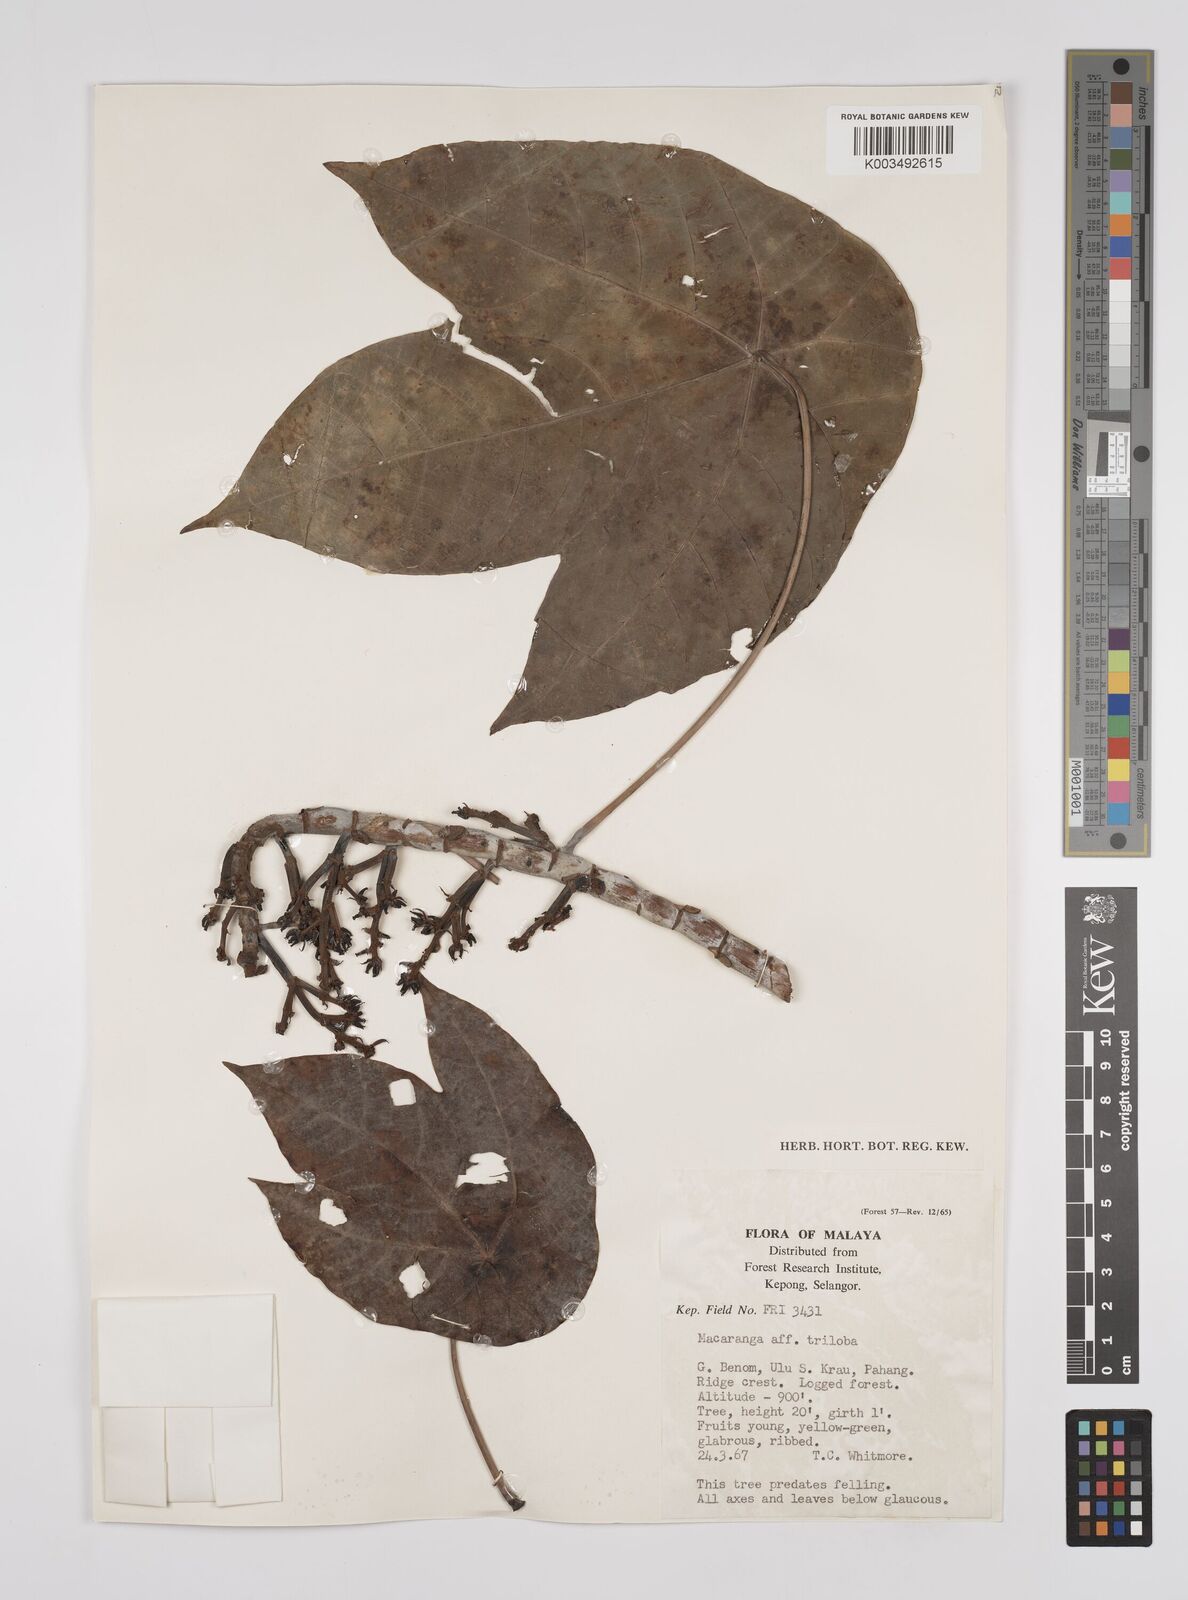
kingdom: Plantae
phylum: Tracheophyta
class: Magnoliopsida
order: Malpighiales
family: Euphorbiaceae
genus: Macaranga
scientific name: Macaranga constricta
